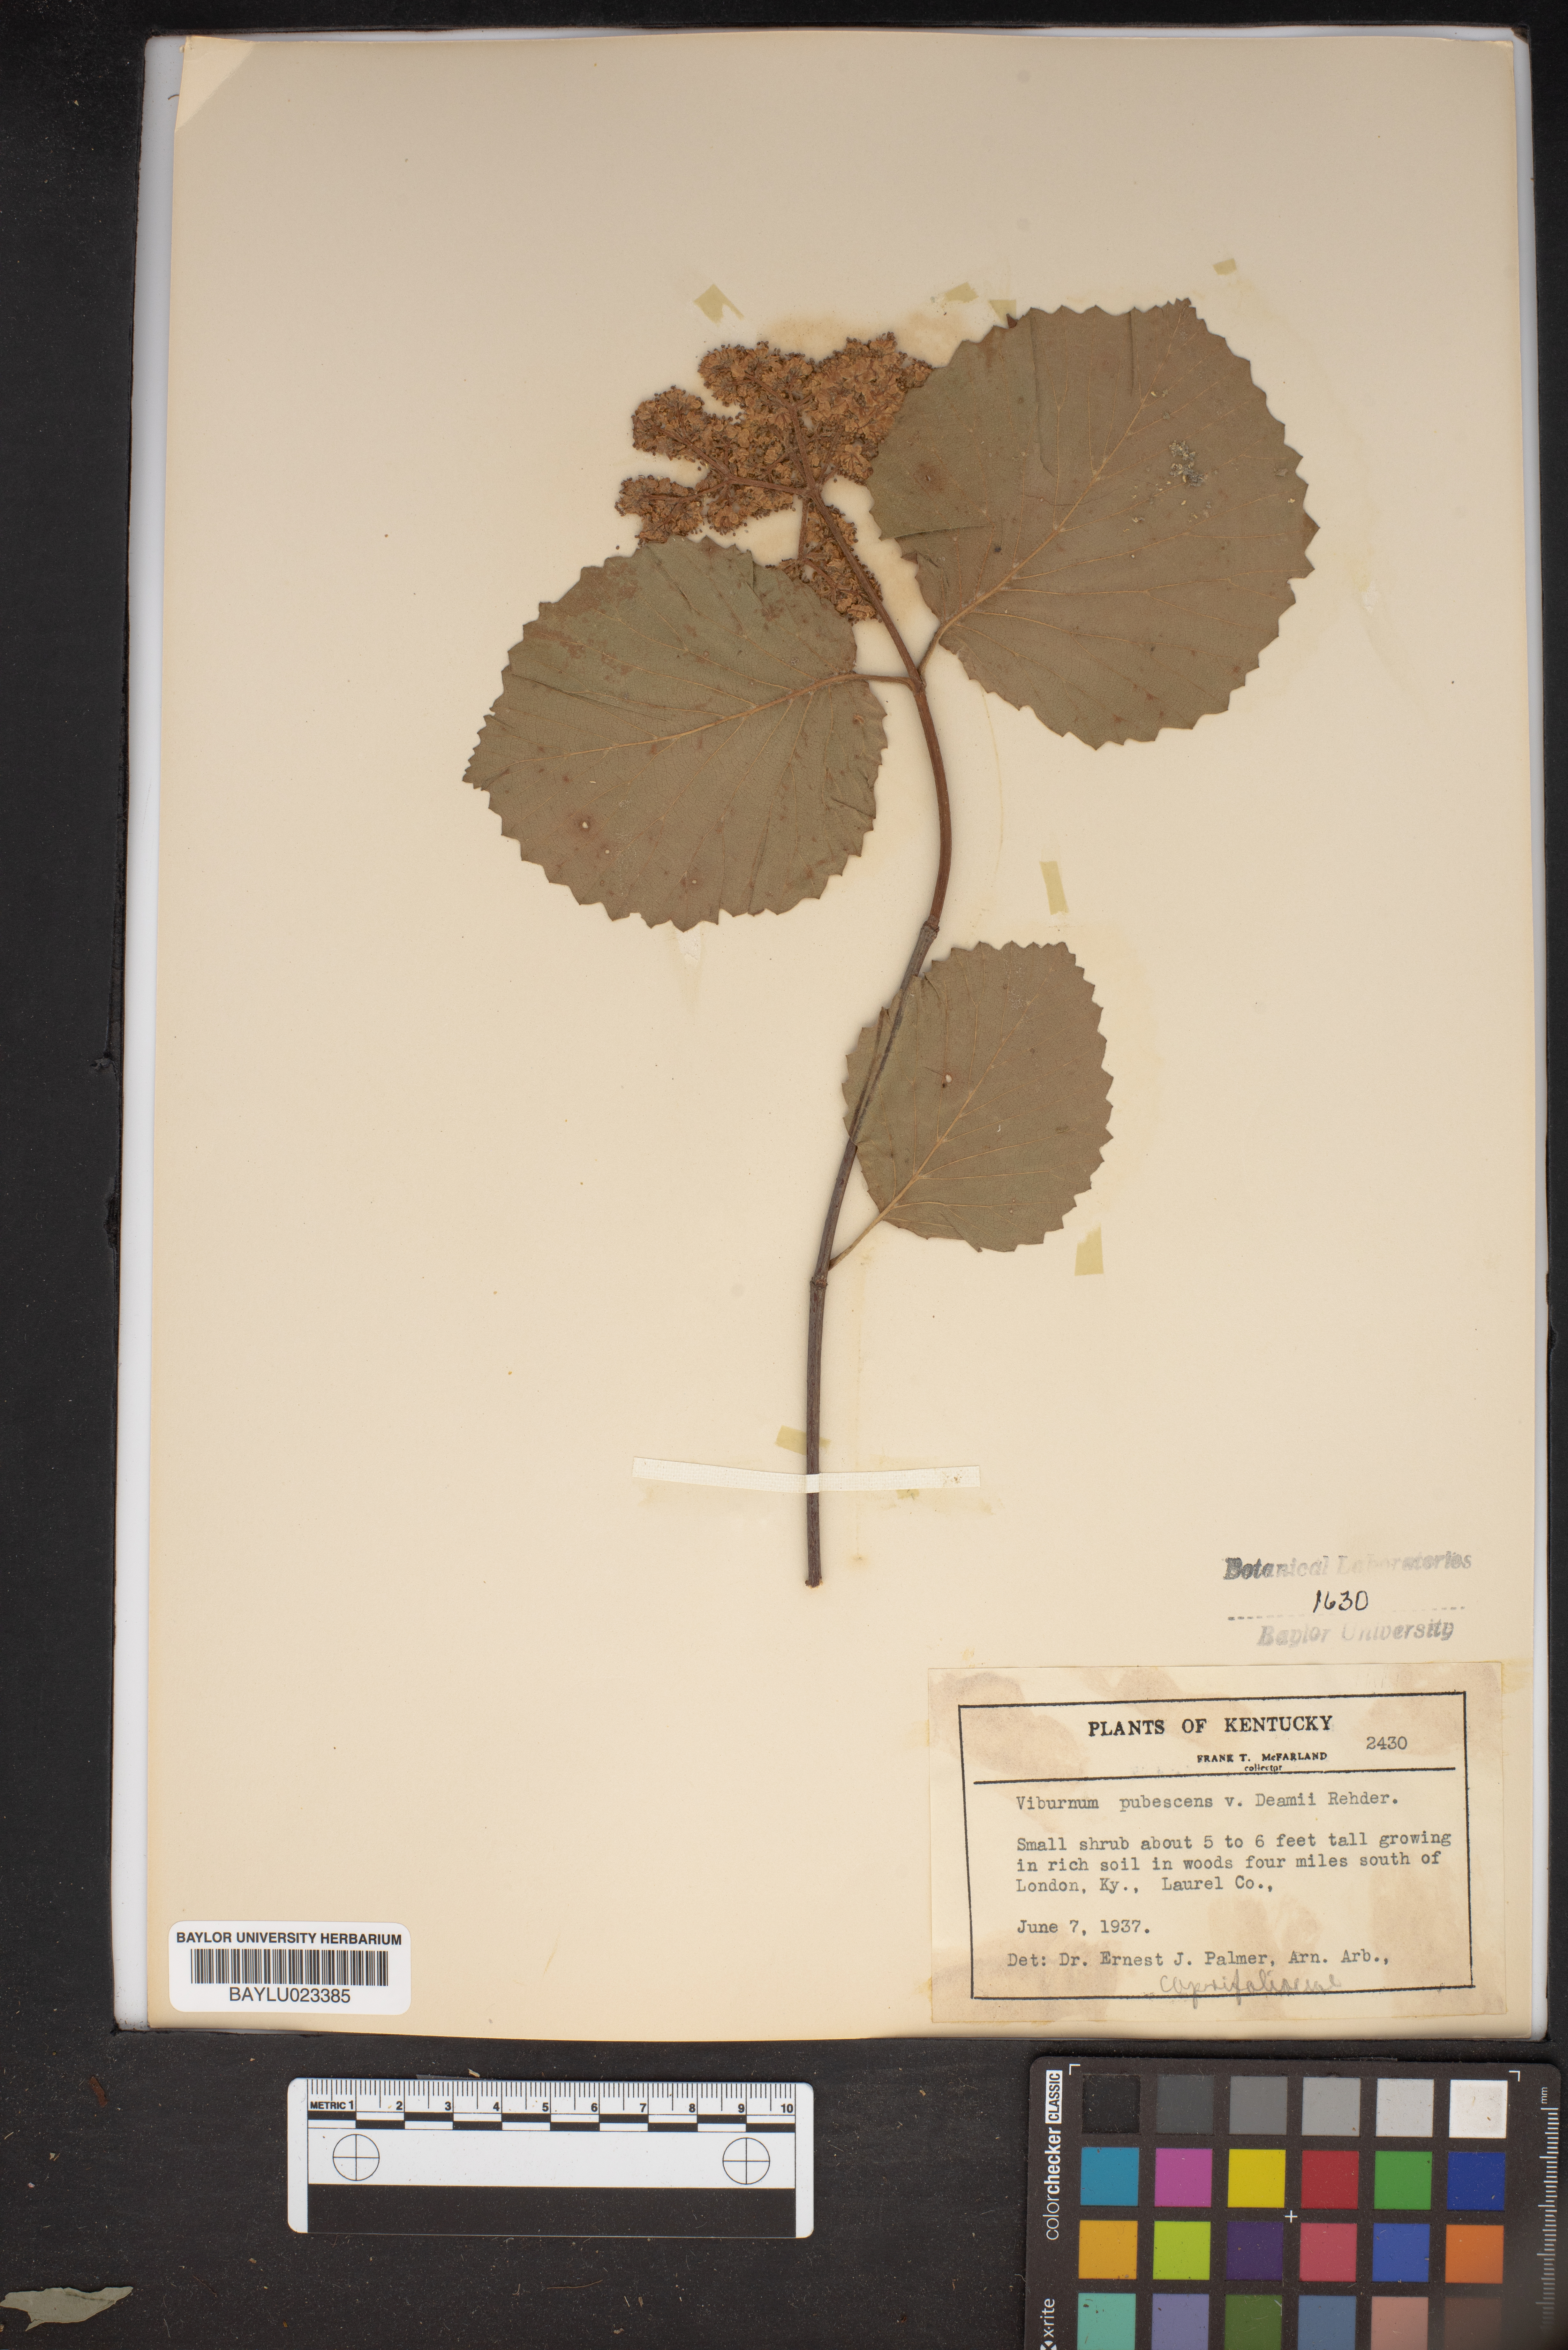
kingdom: Plantae
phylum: Tracheophyta
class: Magnoliopsida
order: Dipsacales
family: Viburnaceae
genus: Viburnum
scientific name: Viburnum deamii
